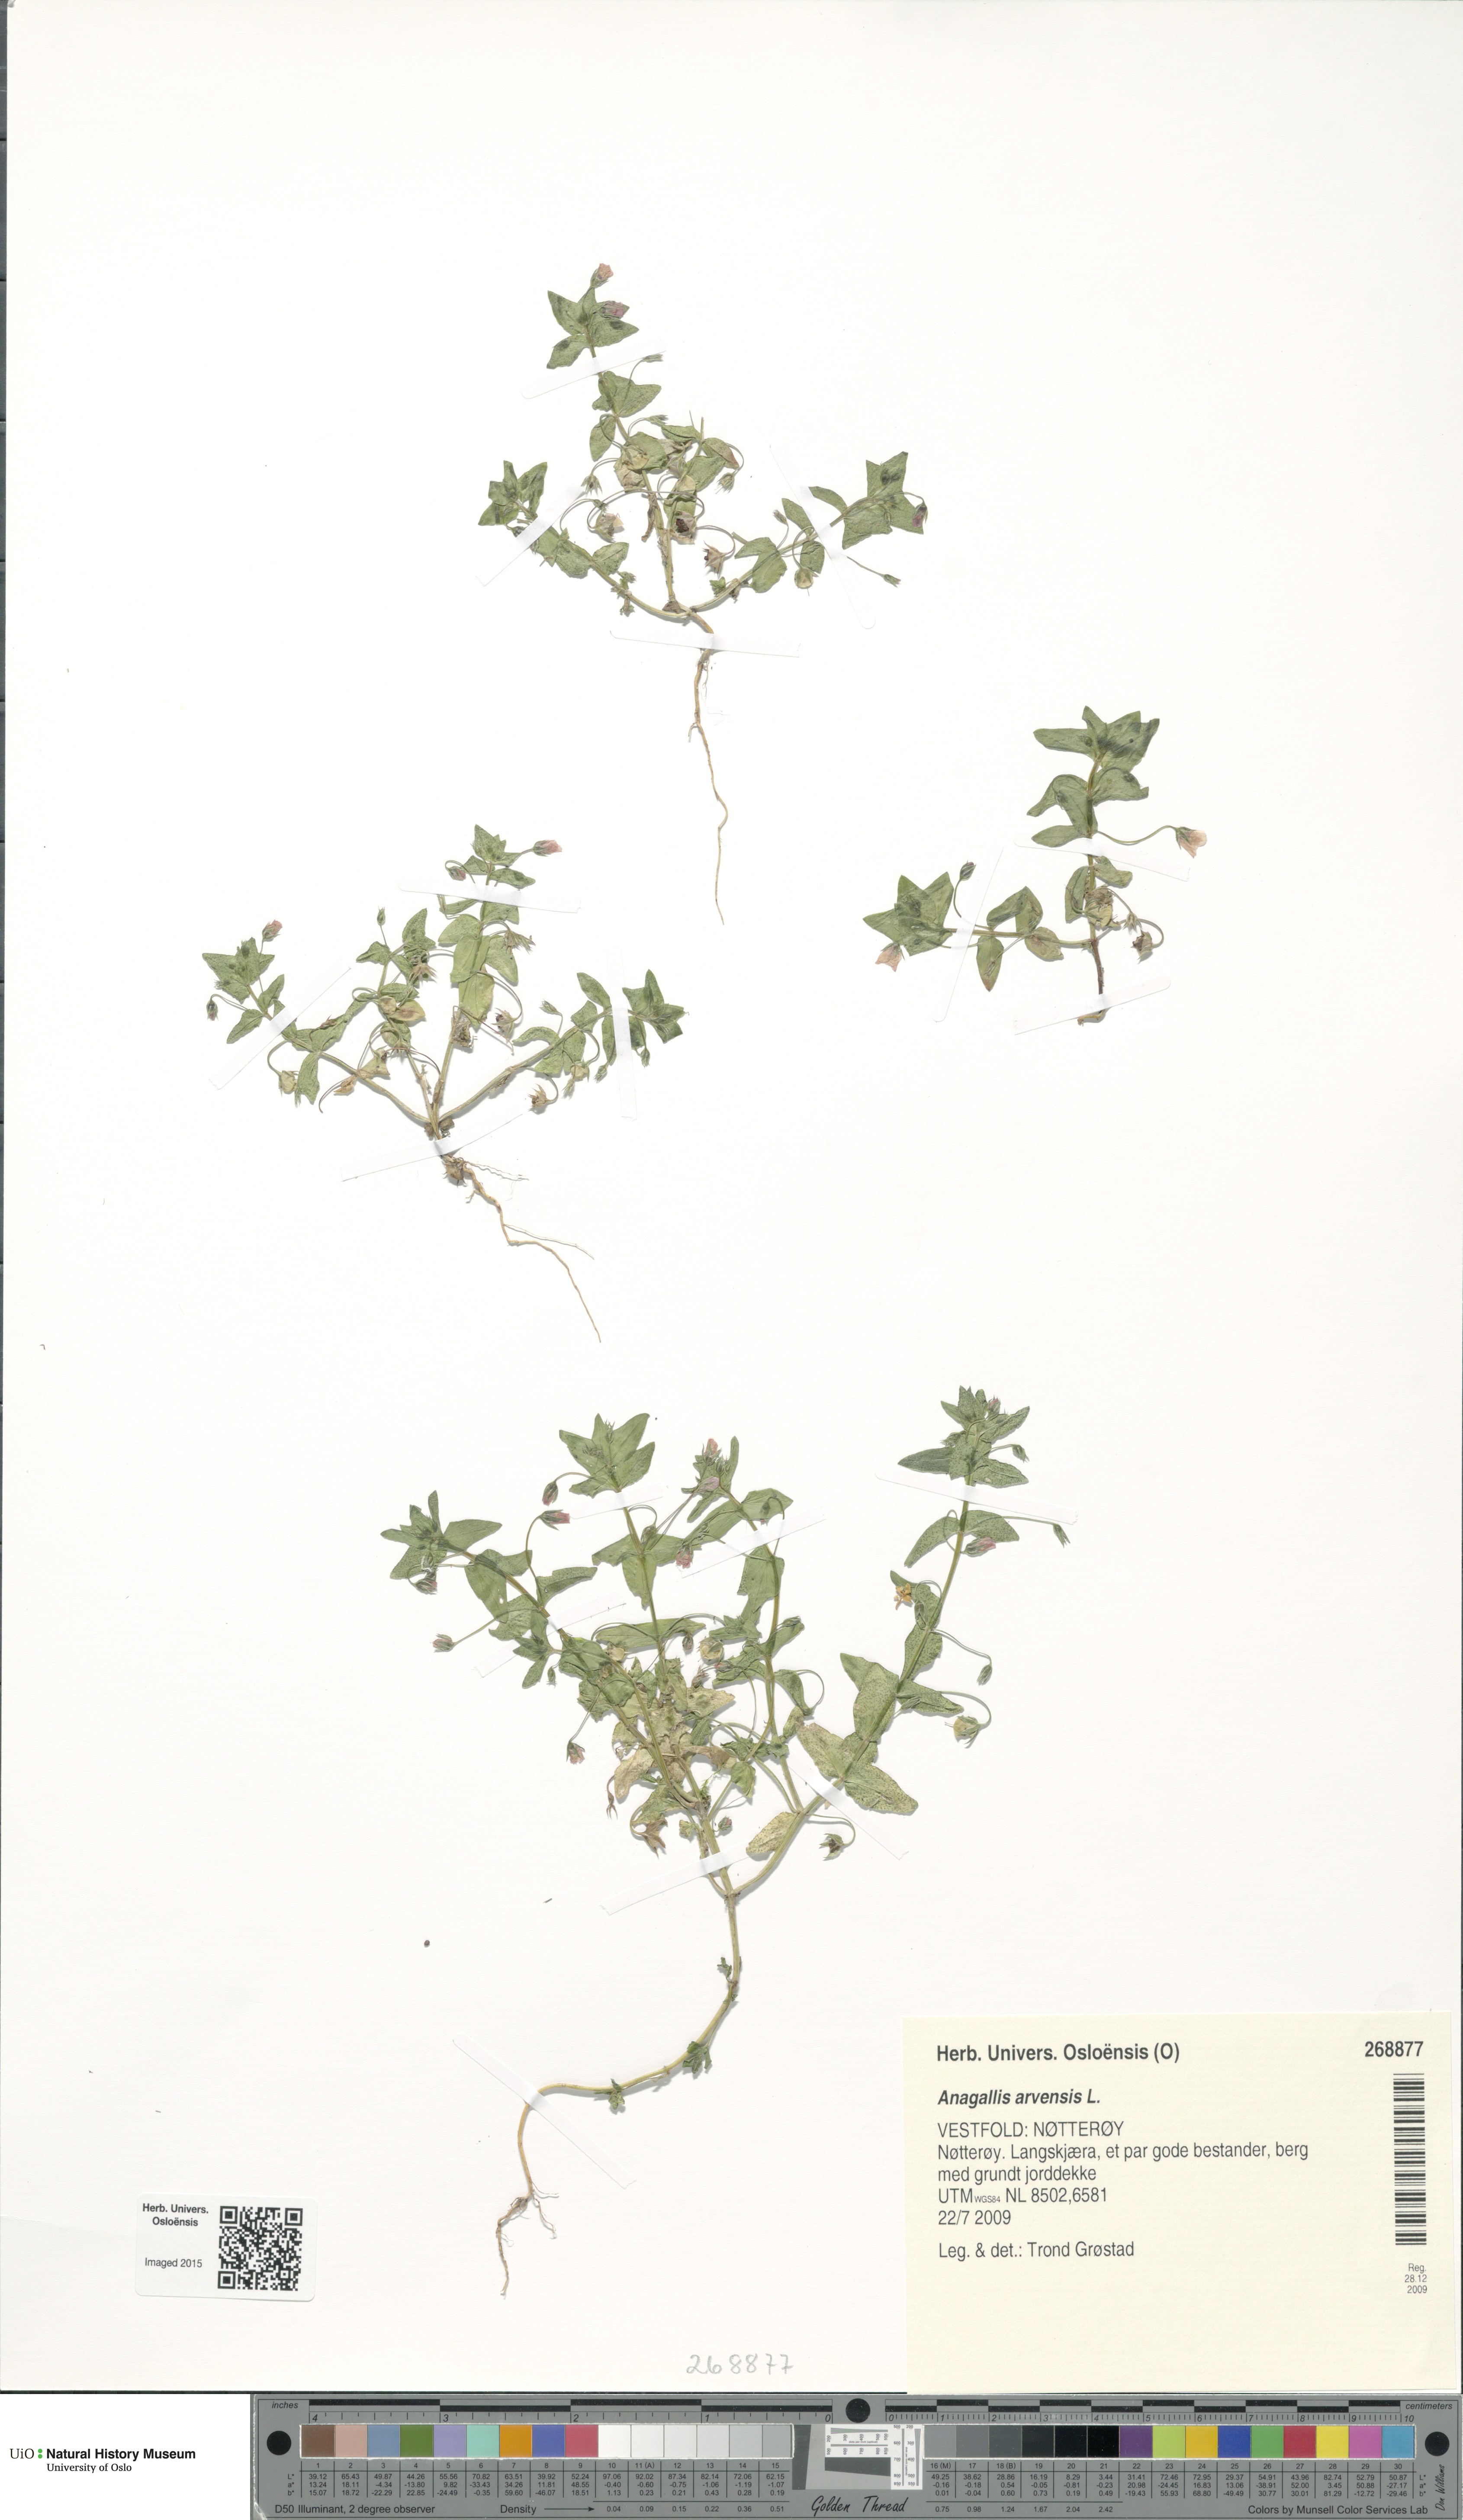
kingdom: Plantae
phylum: Tracheophyta
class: Magnoliopsida
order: Ericales
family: Primulaceae
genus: Lysimachia
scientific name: Lysimachia arvensis
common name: Scarlet pimpernel
